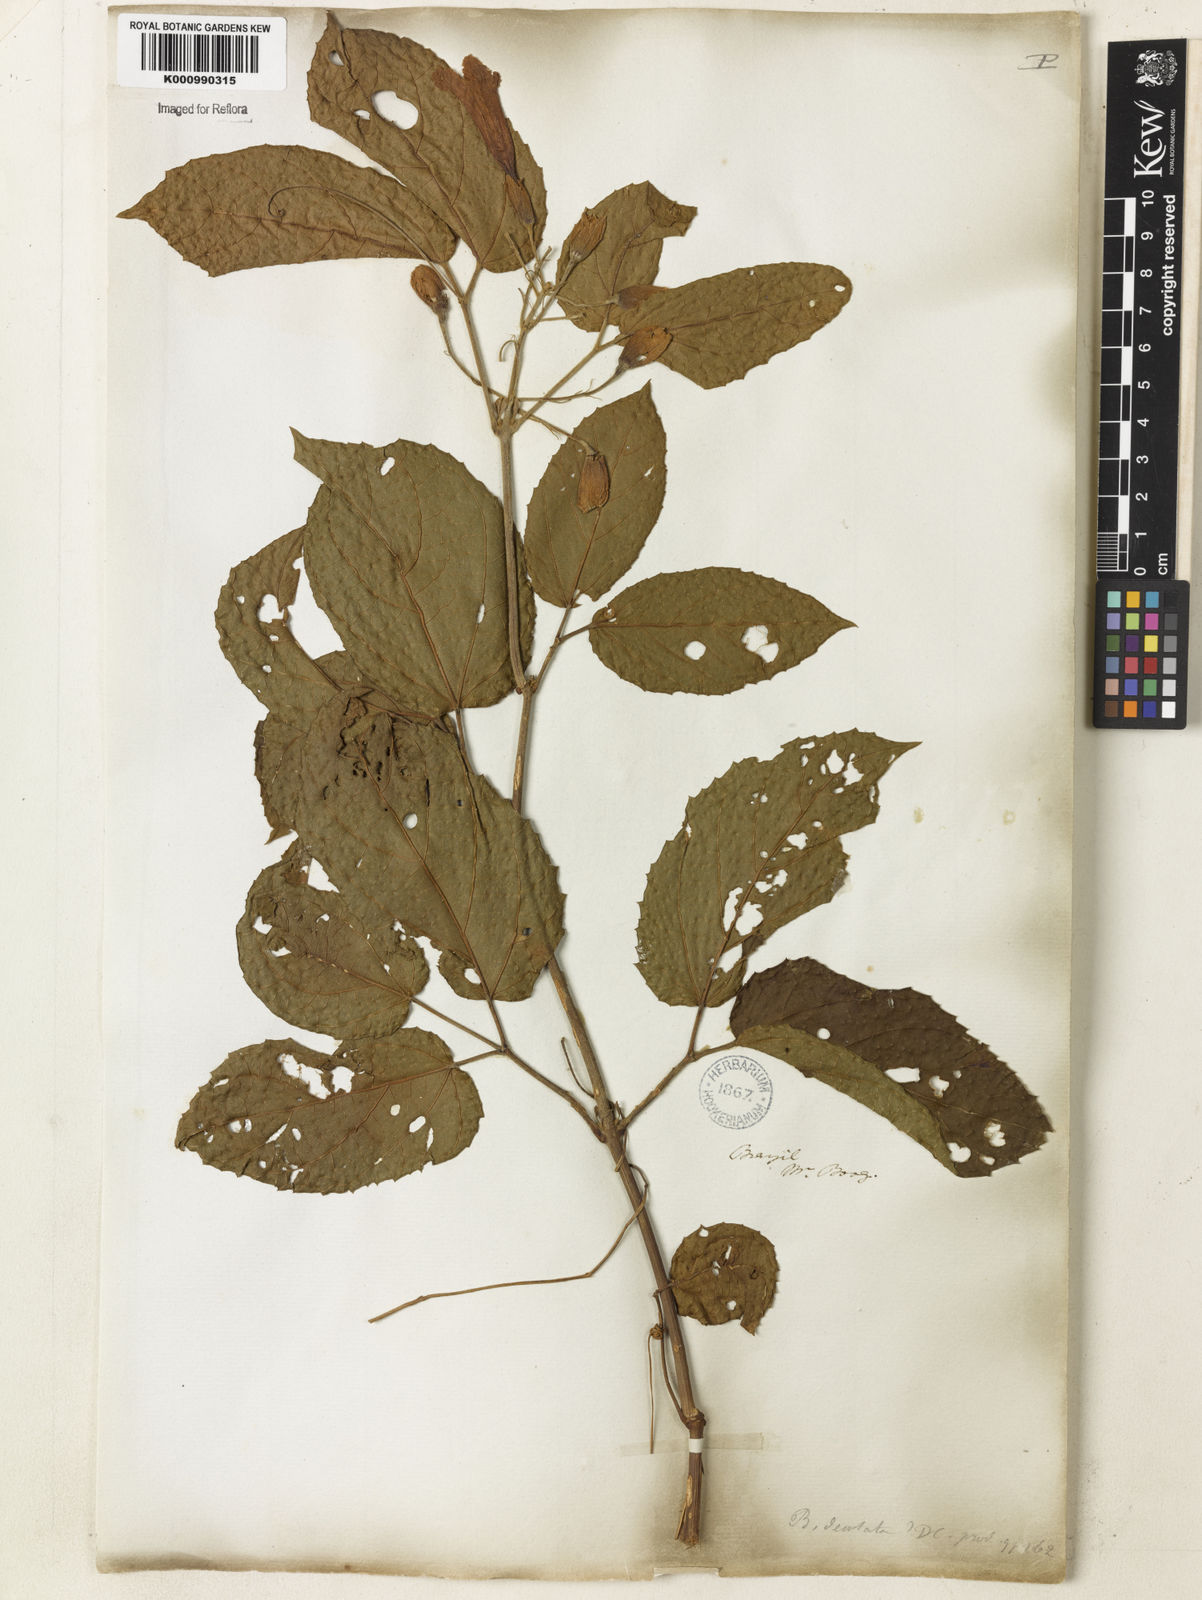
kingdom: Plantae
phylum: Tracheophyta
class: Magnoliopsida
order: Lamiales
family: Bignoniaceae
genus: Stizophyllum
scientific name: Stizophyllum perforatum
